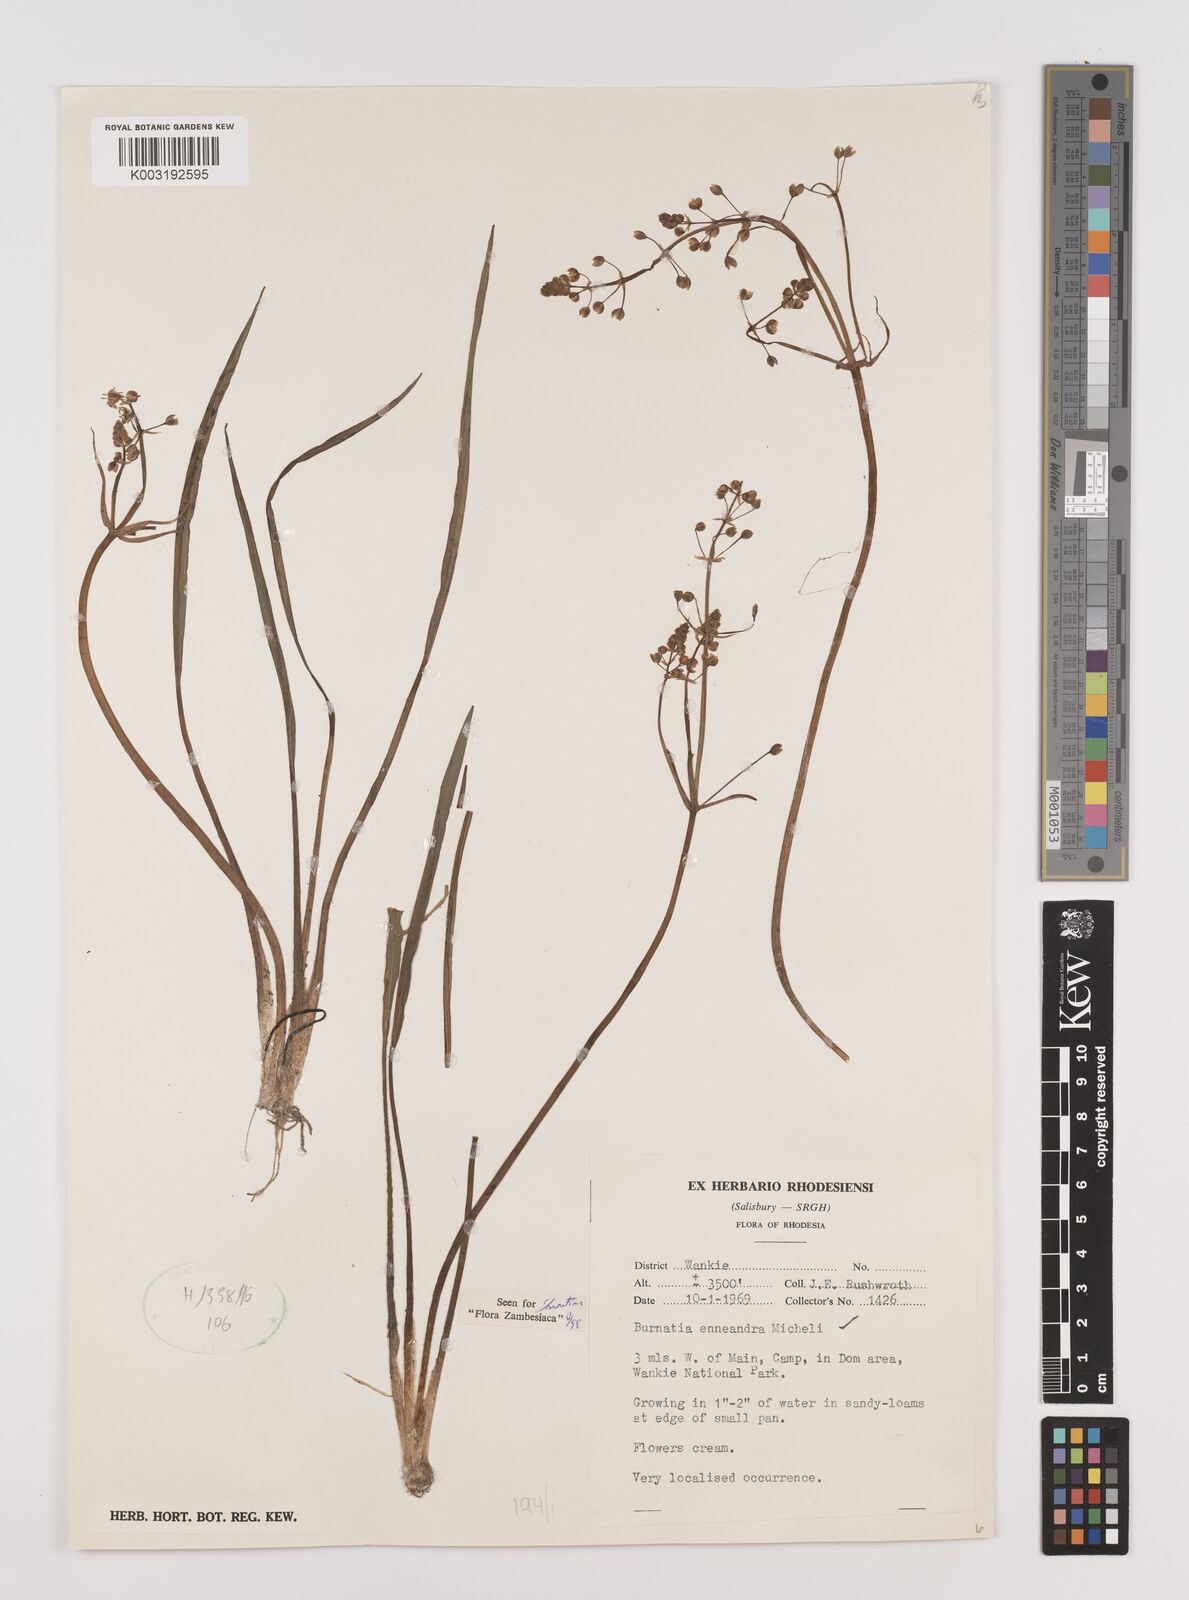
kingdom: Plantae
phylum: Tracheophyta
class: Liliopsida
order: Alismatales
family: Alismataceae
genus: Burnatia
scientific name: Burnatia enneandra
